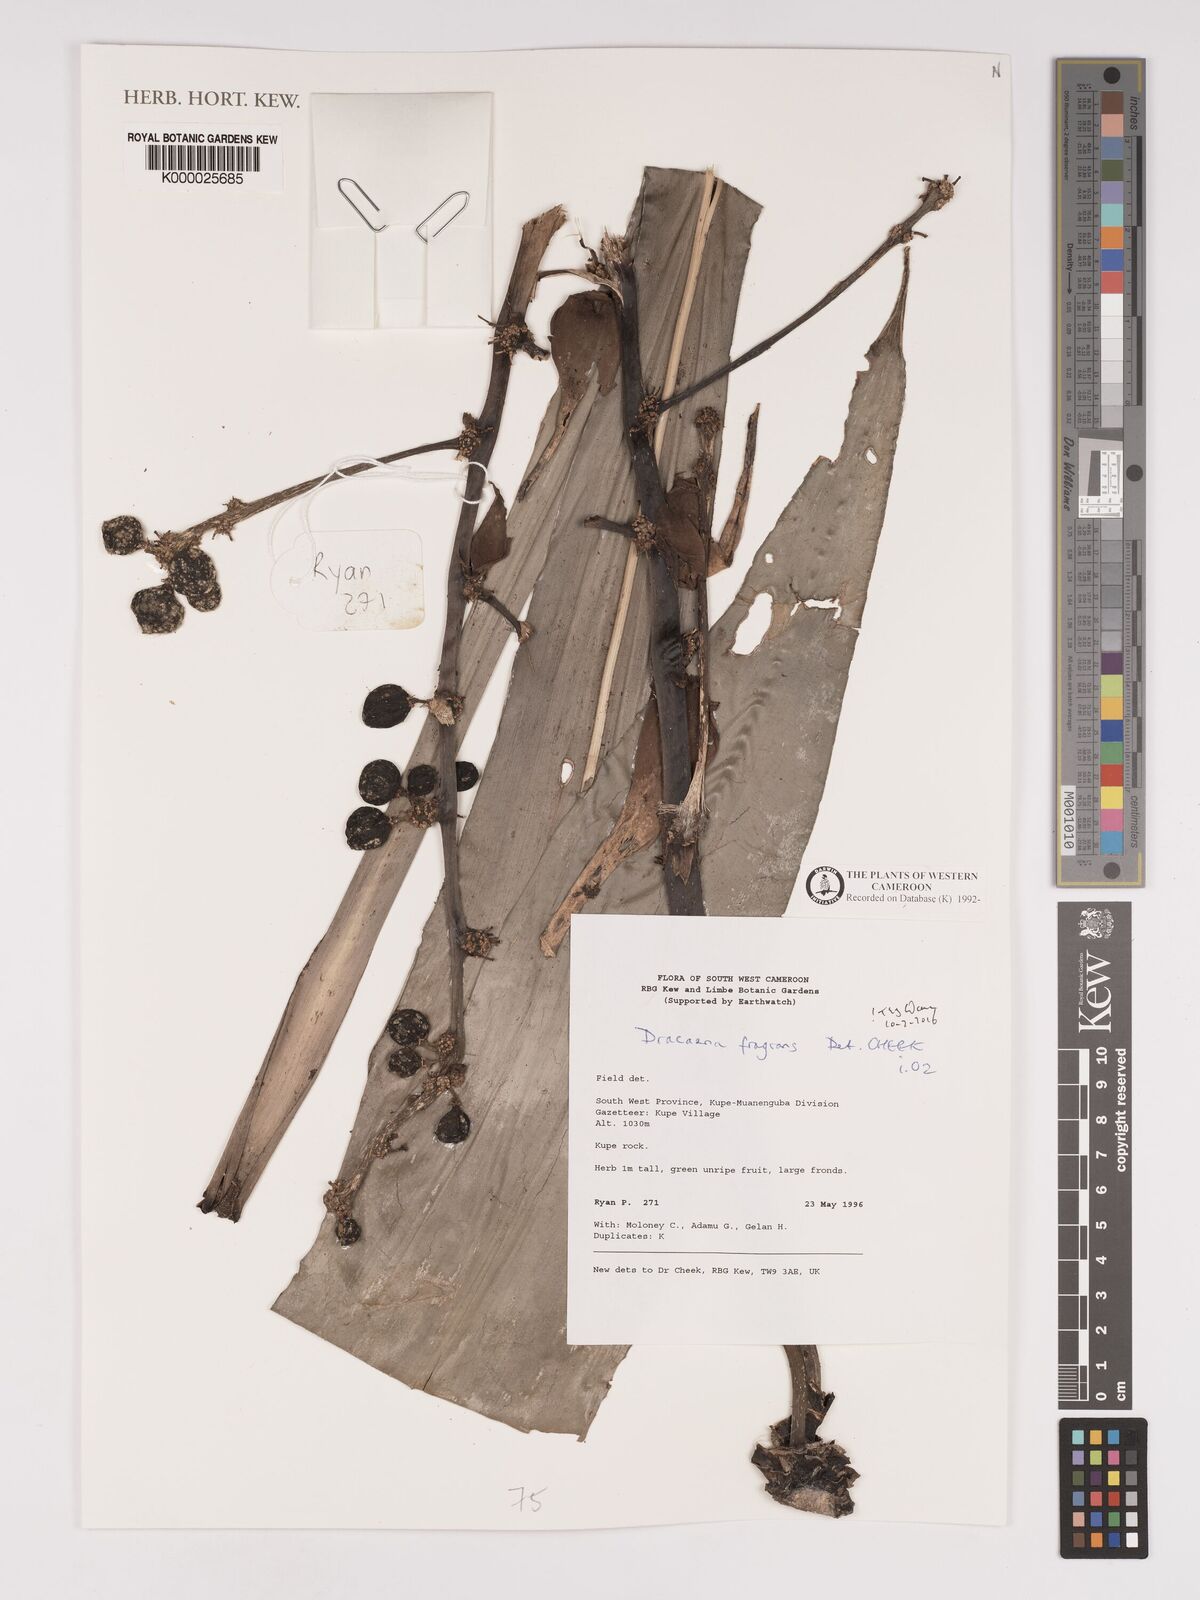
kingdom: Plantae
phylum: Tracheophyta
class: Liliopsida
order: Asparagales
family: Asparagaceae
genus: Dracaena
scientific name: Dracaena fragrans
